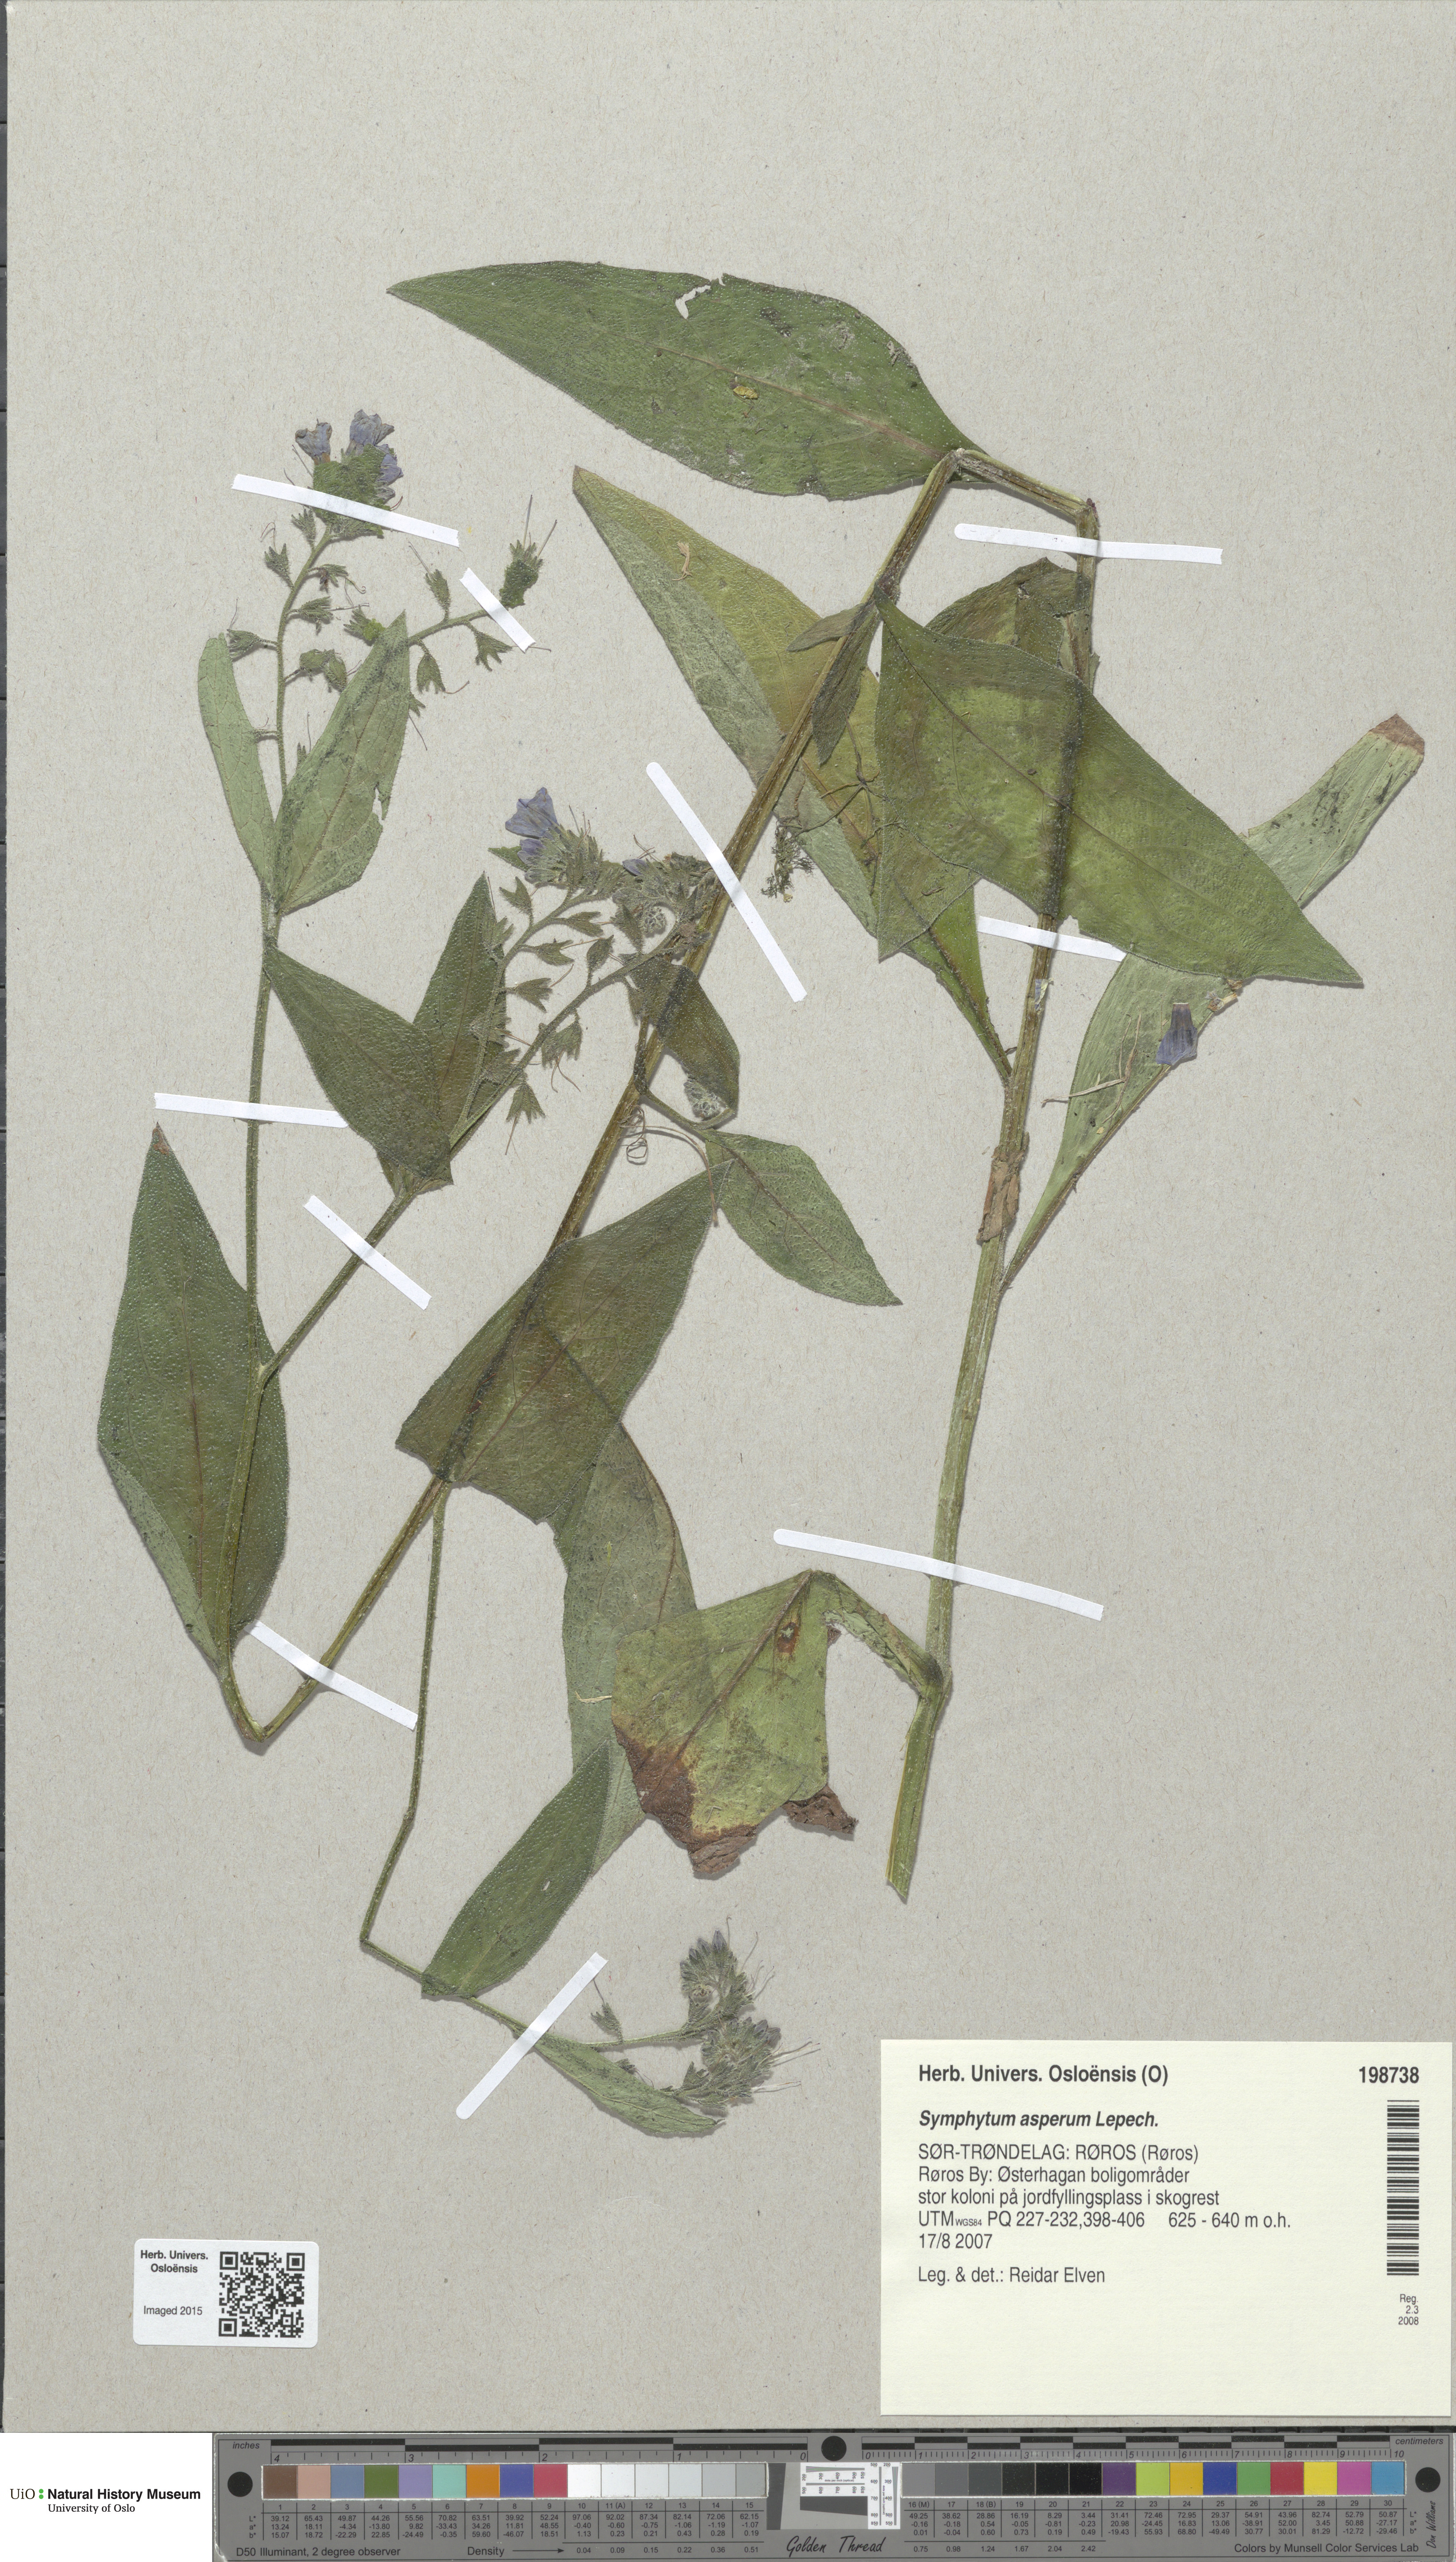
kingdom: Plantae
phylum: Tracheophyta
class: Magnoliopsida
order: Boraginales
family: Boraginaceae
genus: Symphytum
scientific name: Symphytum asperum
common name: Prickly comfrey
